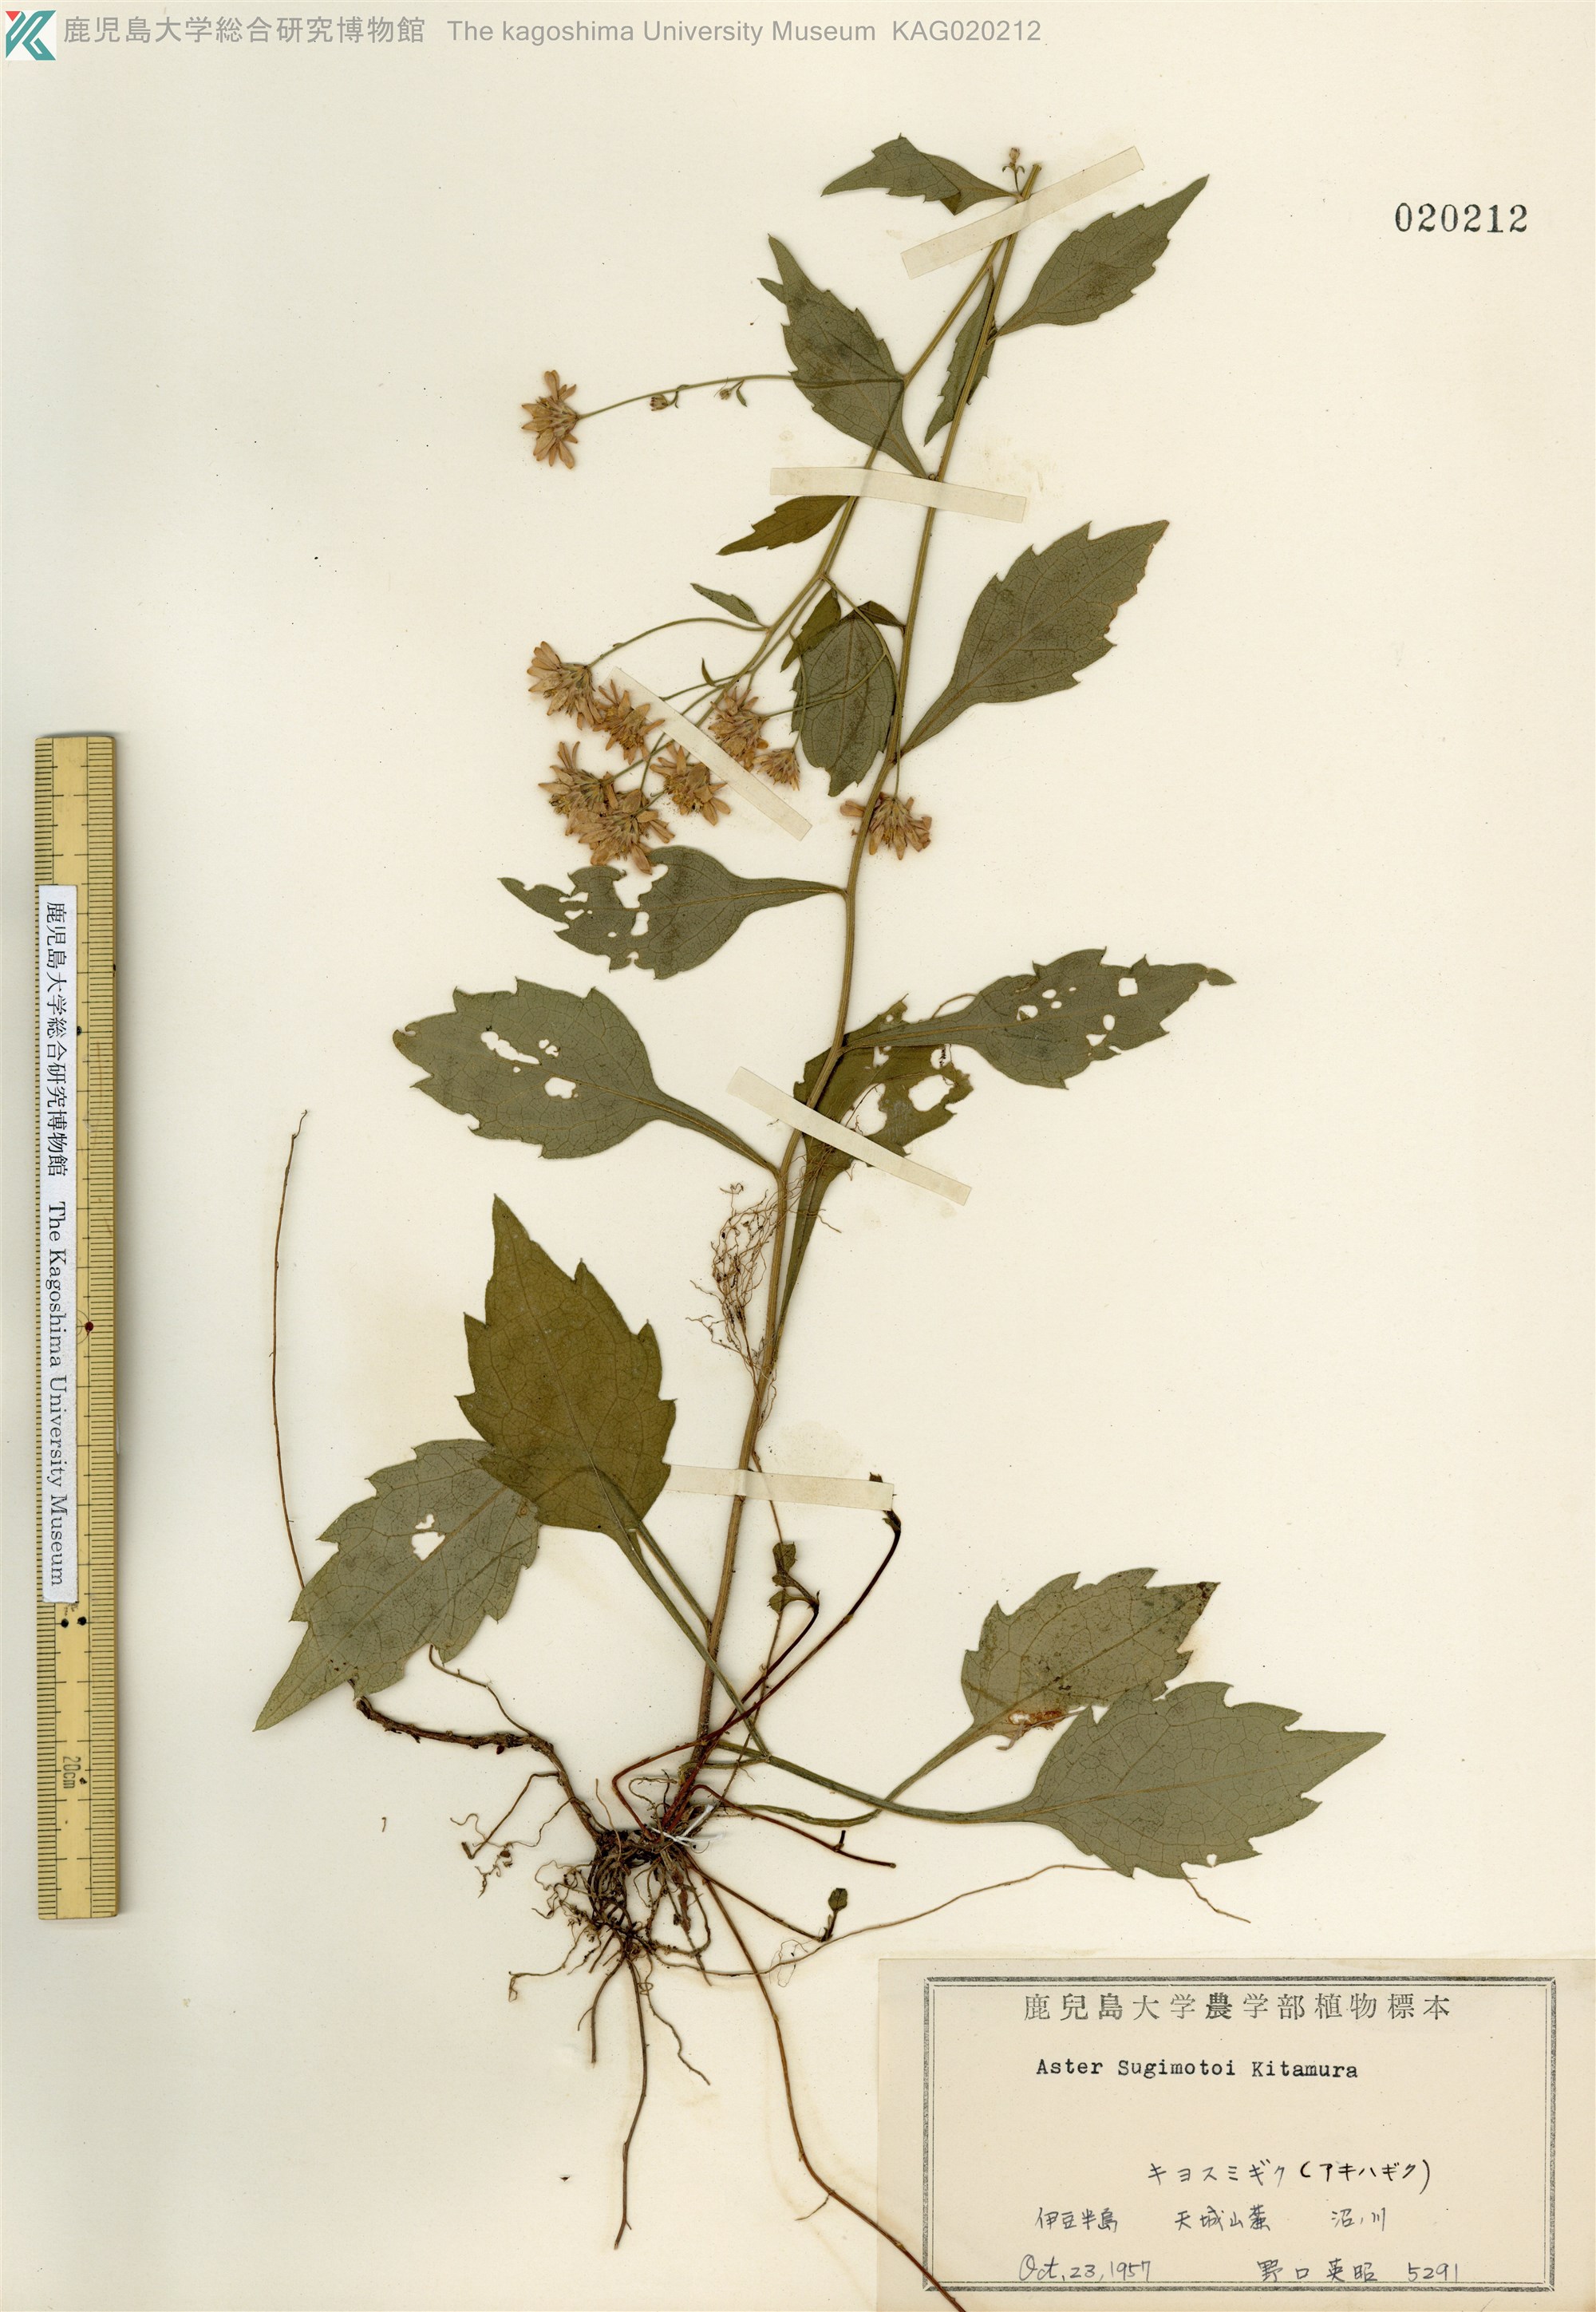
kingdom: Plantae
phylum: Tracheophyta
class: Magnoliopsida
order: Asterales
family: Asteraceae
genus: Aster
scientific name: Aster sugimotoi
